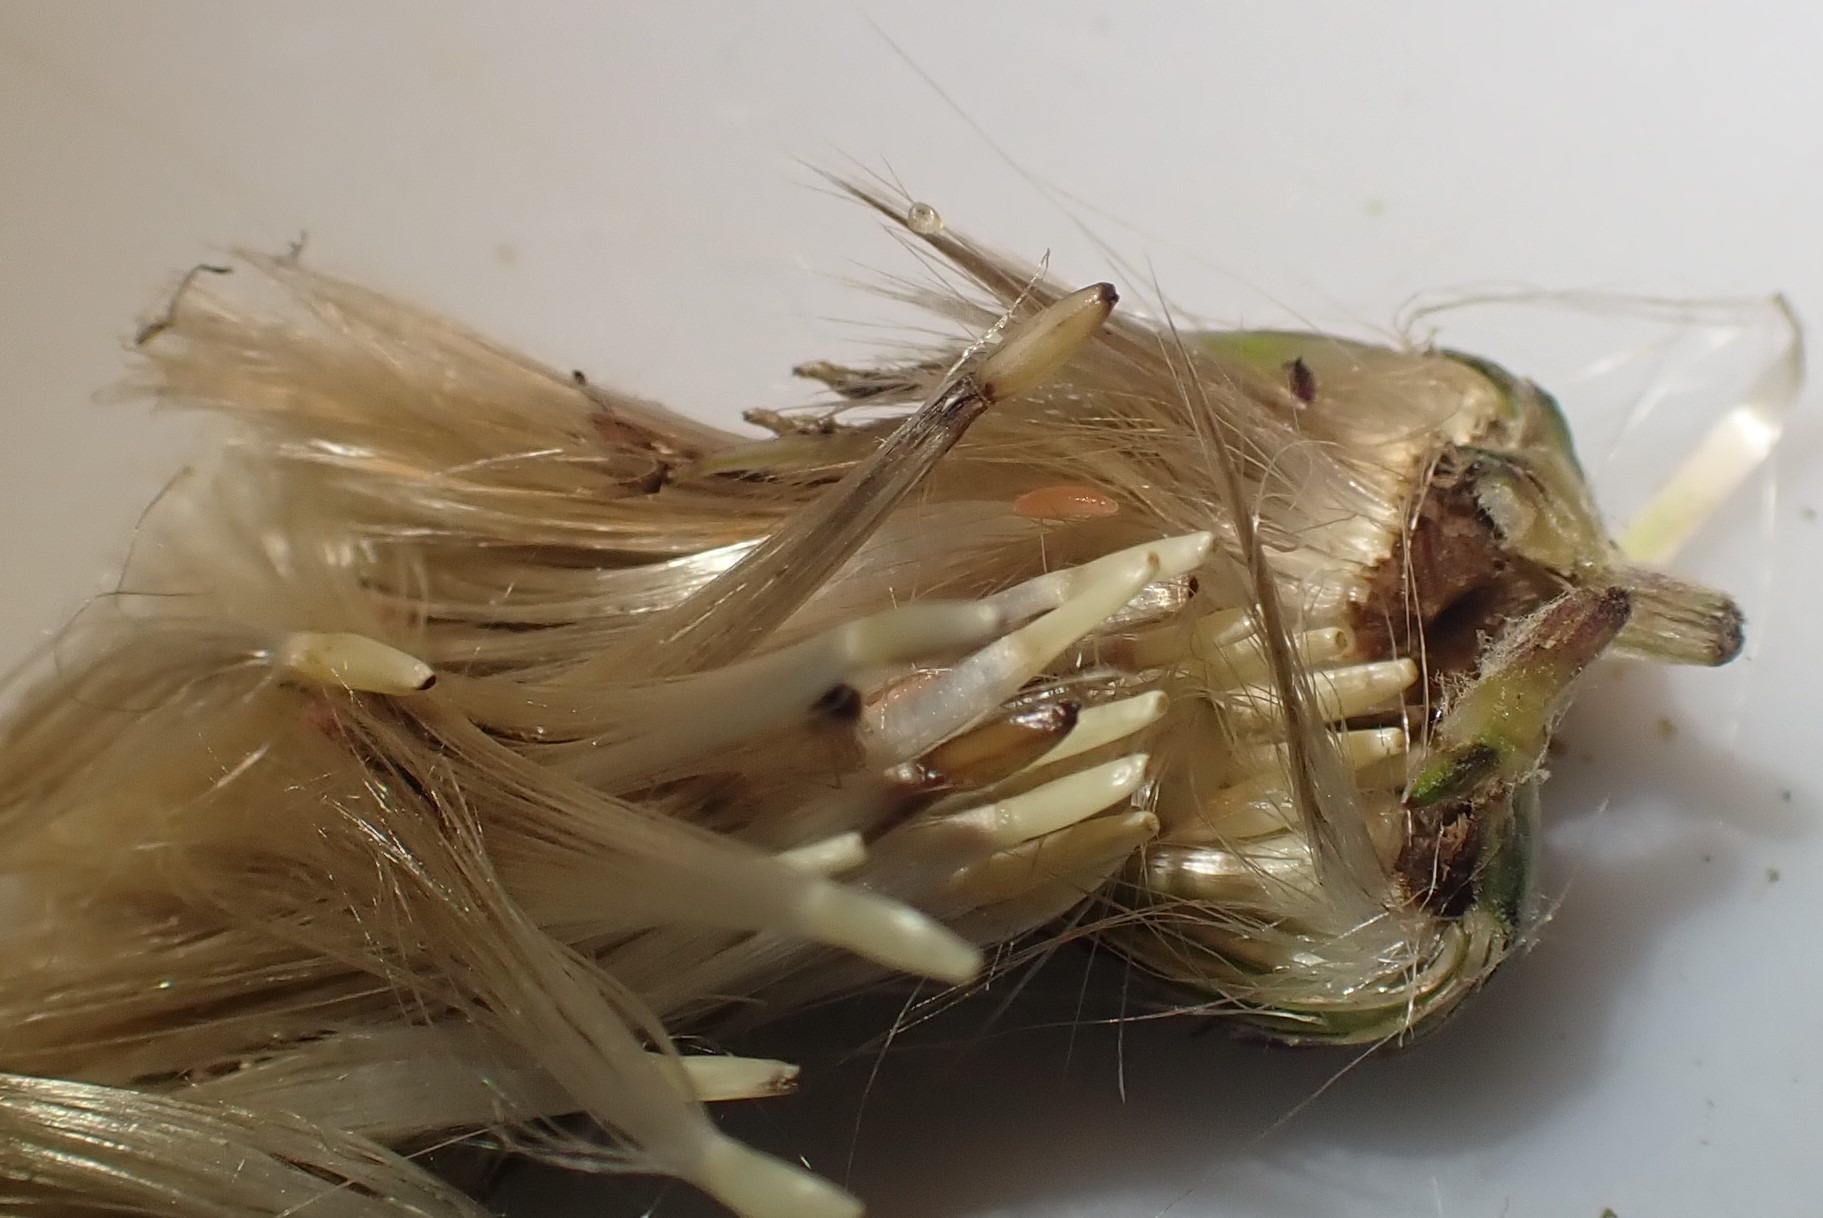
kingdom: Animalia
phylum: Arthropoda
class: Insecta
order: Diptera
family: Cecidomyiidae
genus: Jaapiella
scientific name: Jaapiella cirsiicola
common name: Tidselgalmyg
